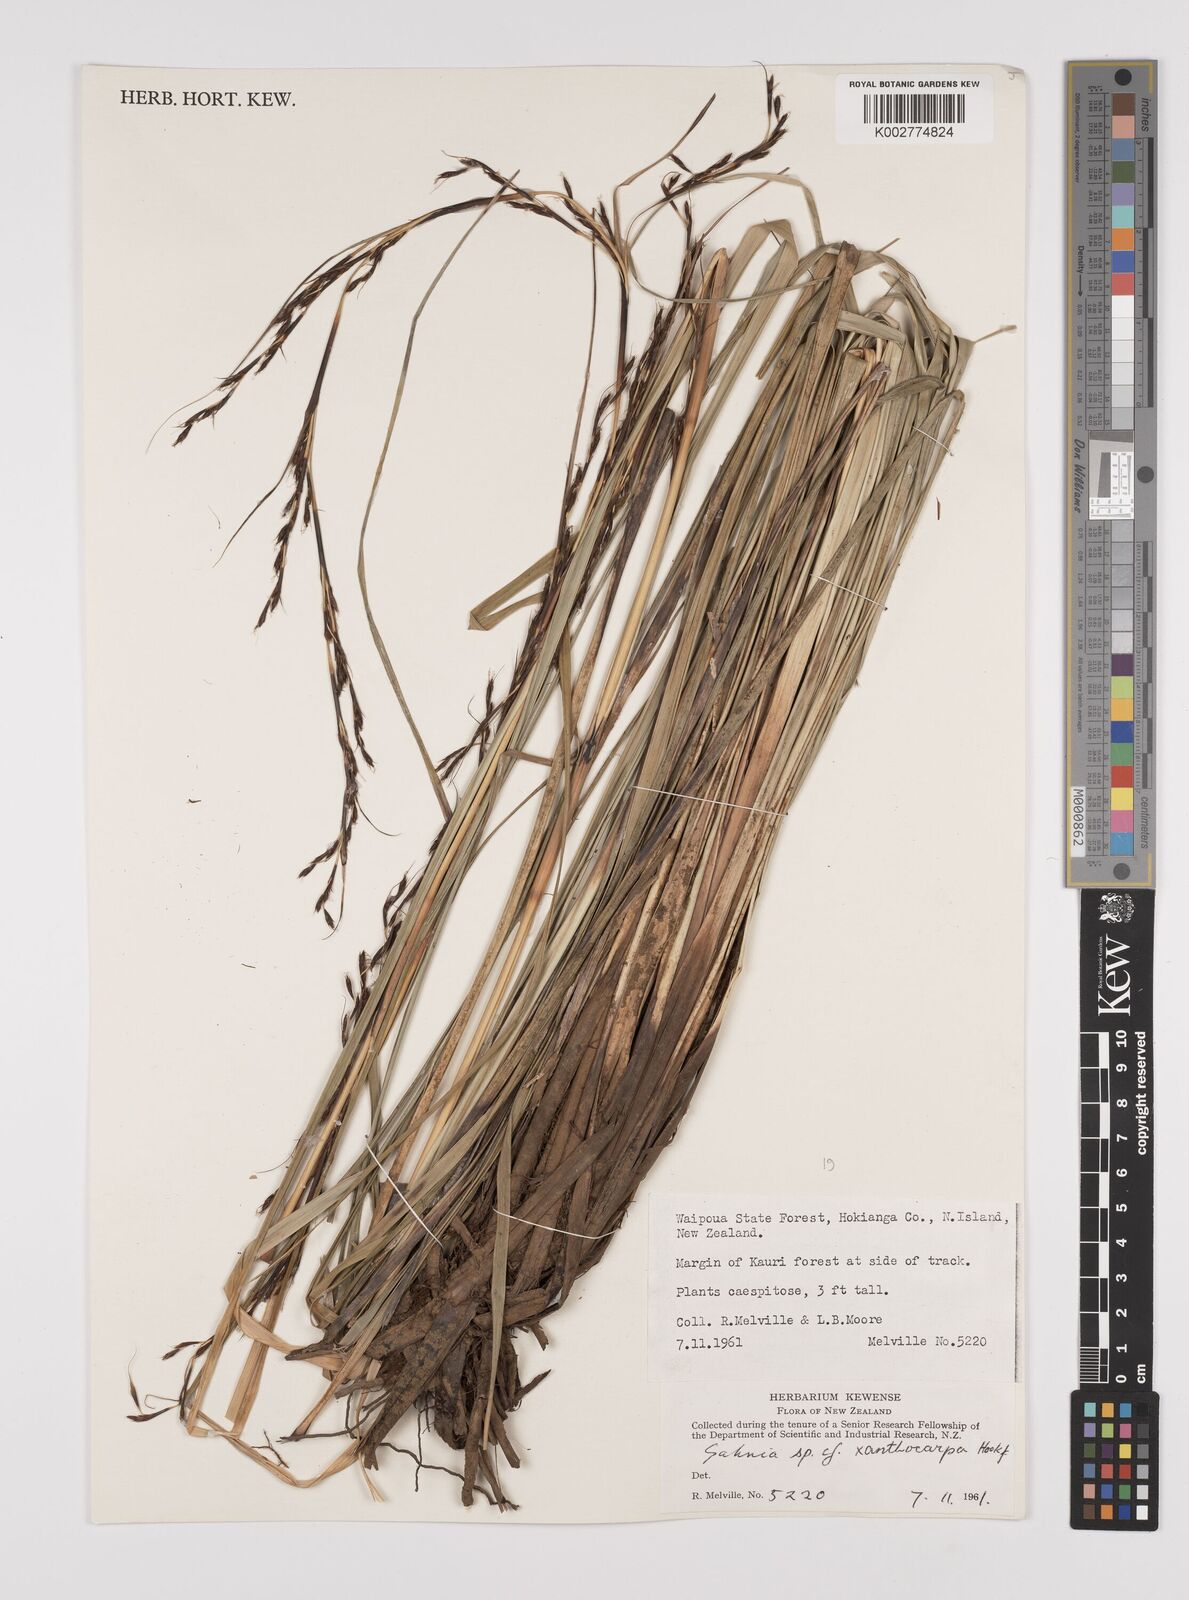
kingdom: Plantae
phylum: Tracheophyta
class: Liliopsida
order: Poales
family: Cyperaceae
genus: Gahnia
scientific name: Gahnia xanthocarpa
